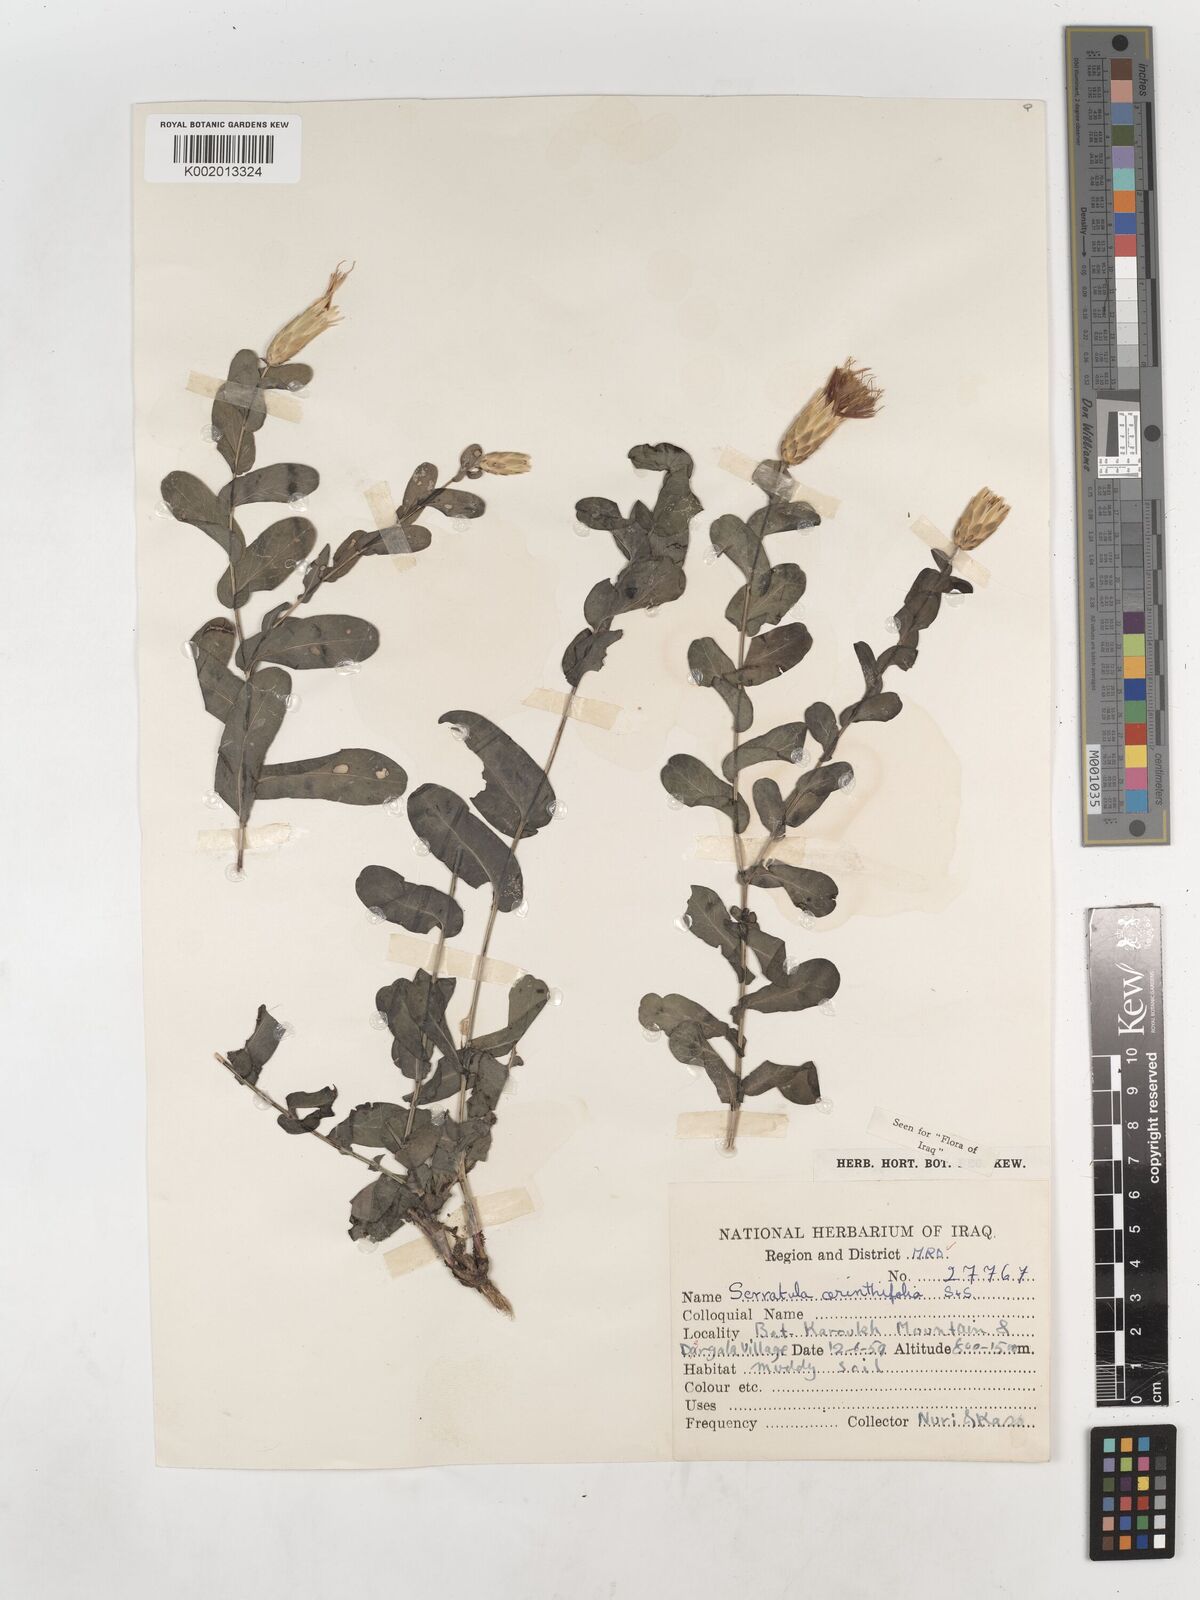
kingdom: Plantae
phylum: Tracheophyta
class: Magnoliopsida
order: Asterales
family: Asteraceae
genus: Klasea
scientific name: Klasea cerinthifolia
